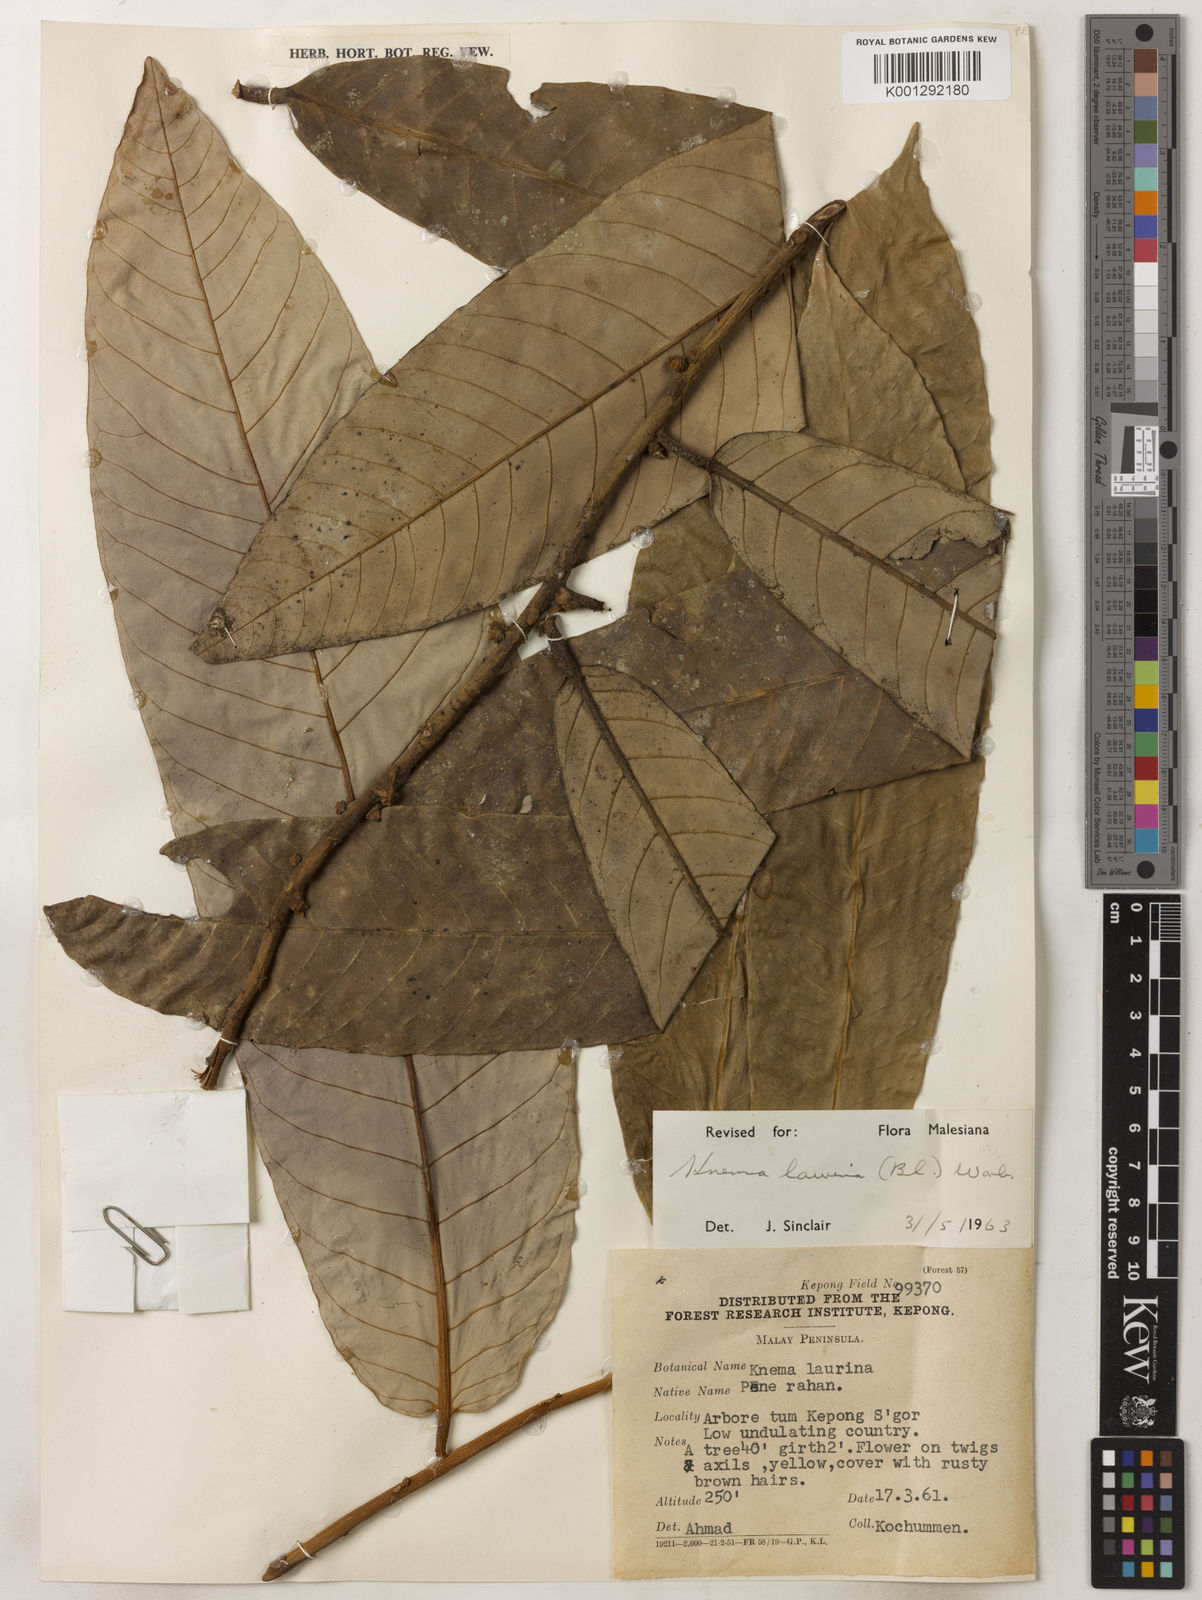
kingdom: Plantae
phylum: Tracheophyta
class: Magnoliopsida
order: Magnoliales
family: Myristicaceae
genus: Knema
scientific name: Knema laurina
